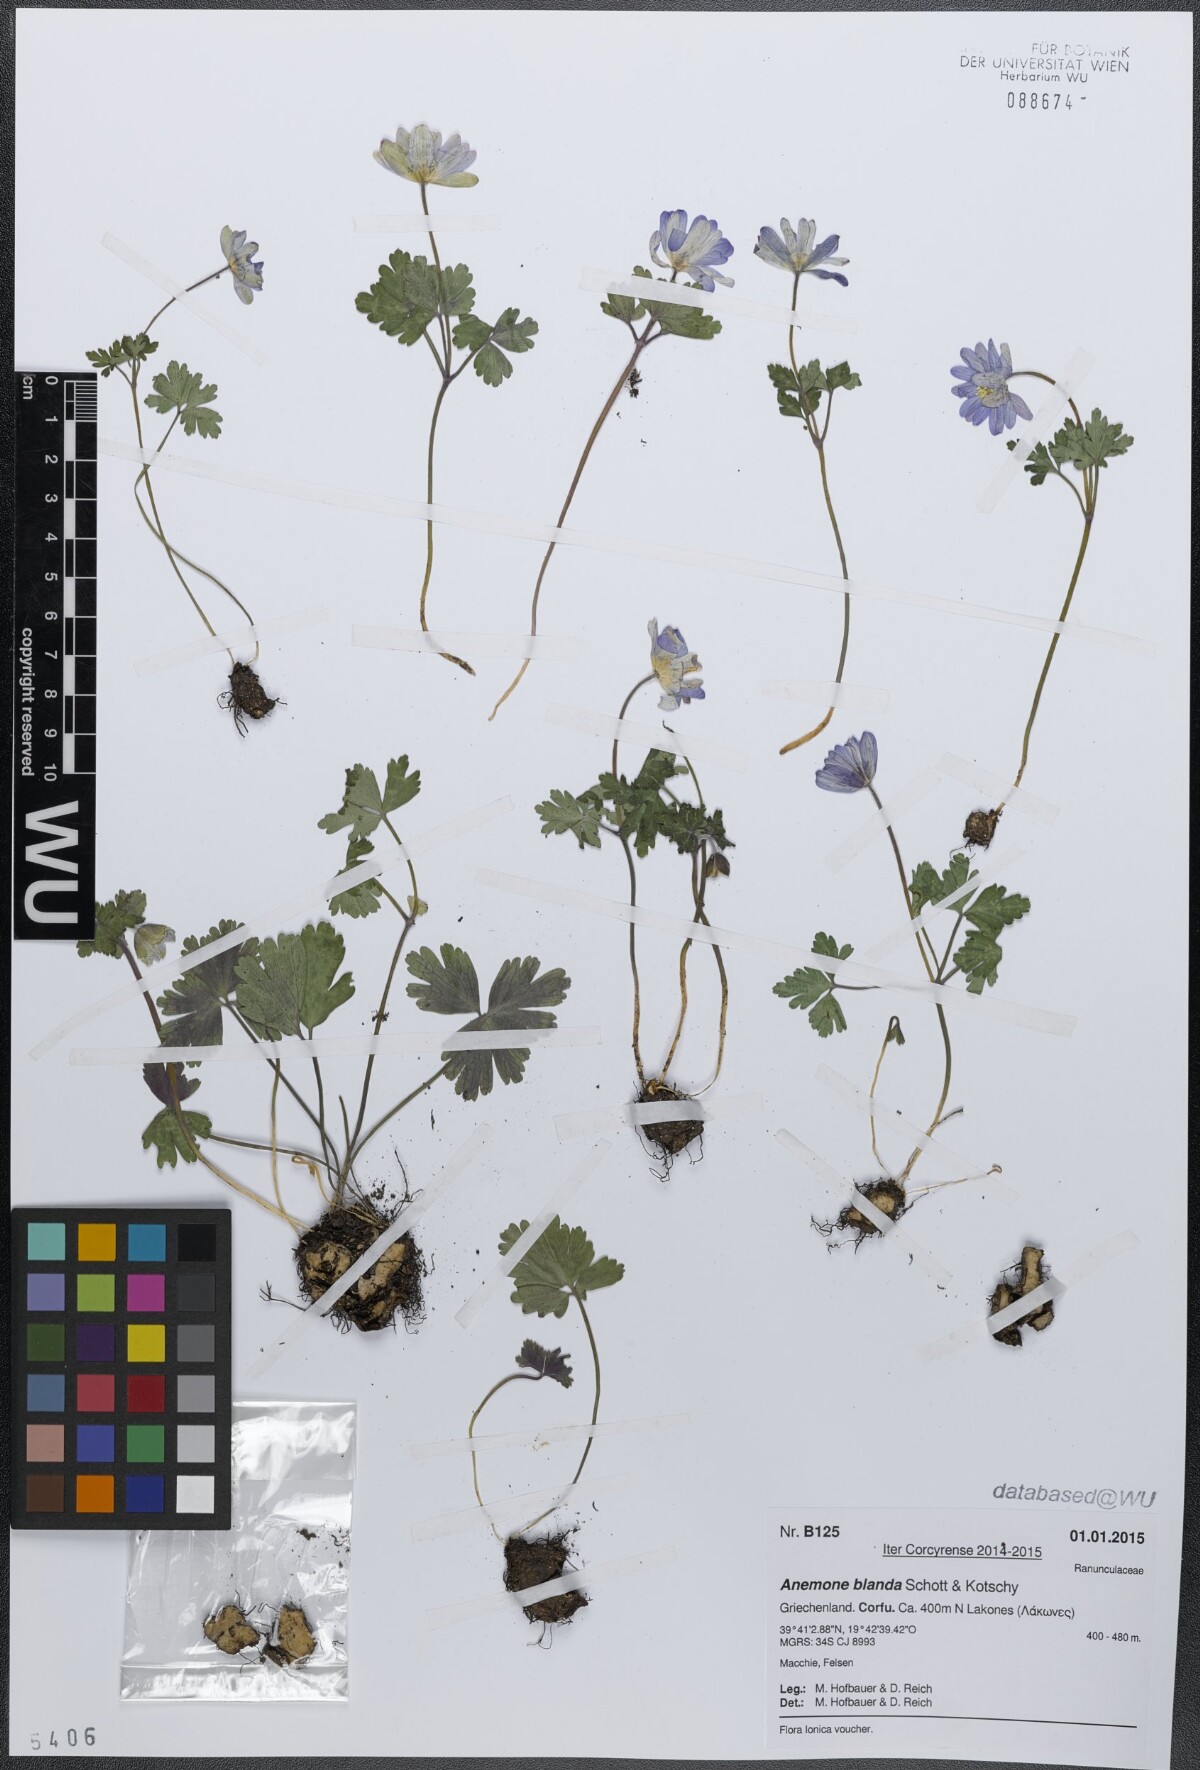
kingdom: Plantae
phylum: Tracheophyta
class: Magnoliopsida
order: Ranunculales
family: Ranunculaceae
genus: Anemone
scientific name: Anemone blanda
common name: Balkan anemone
